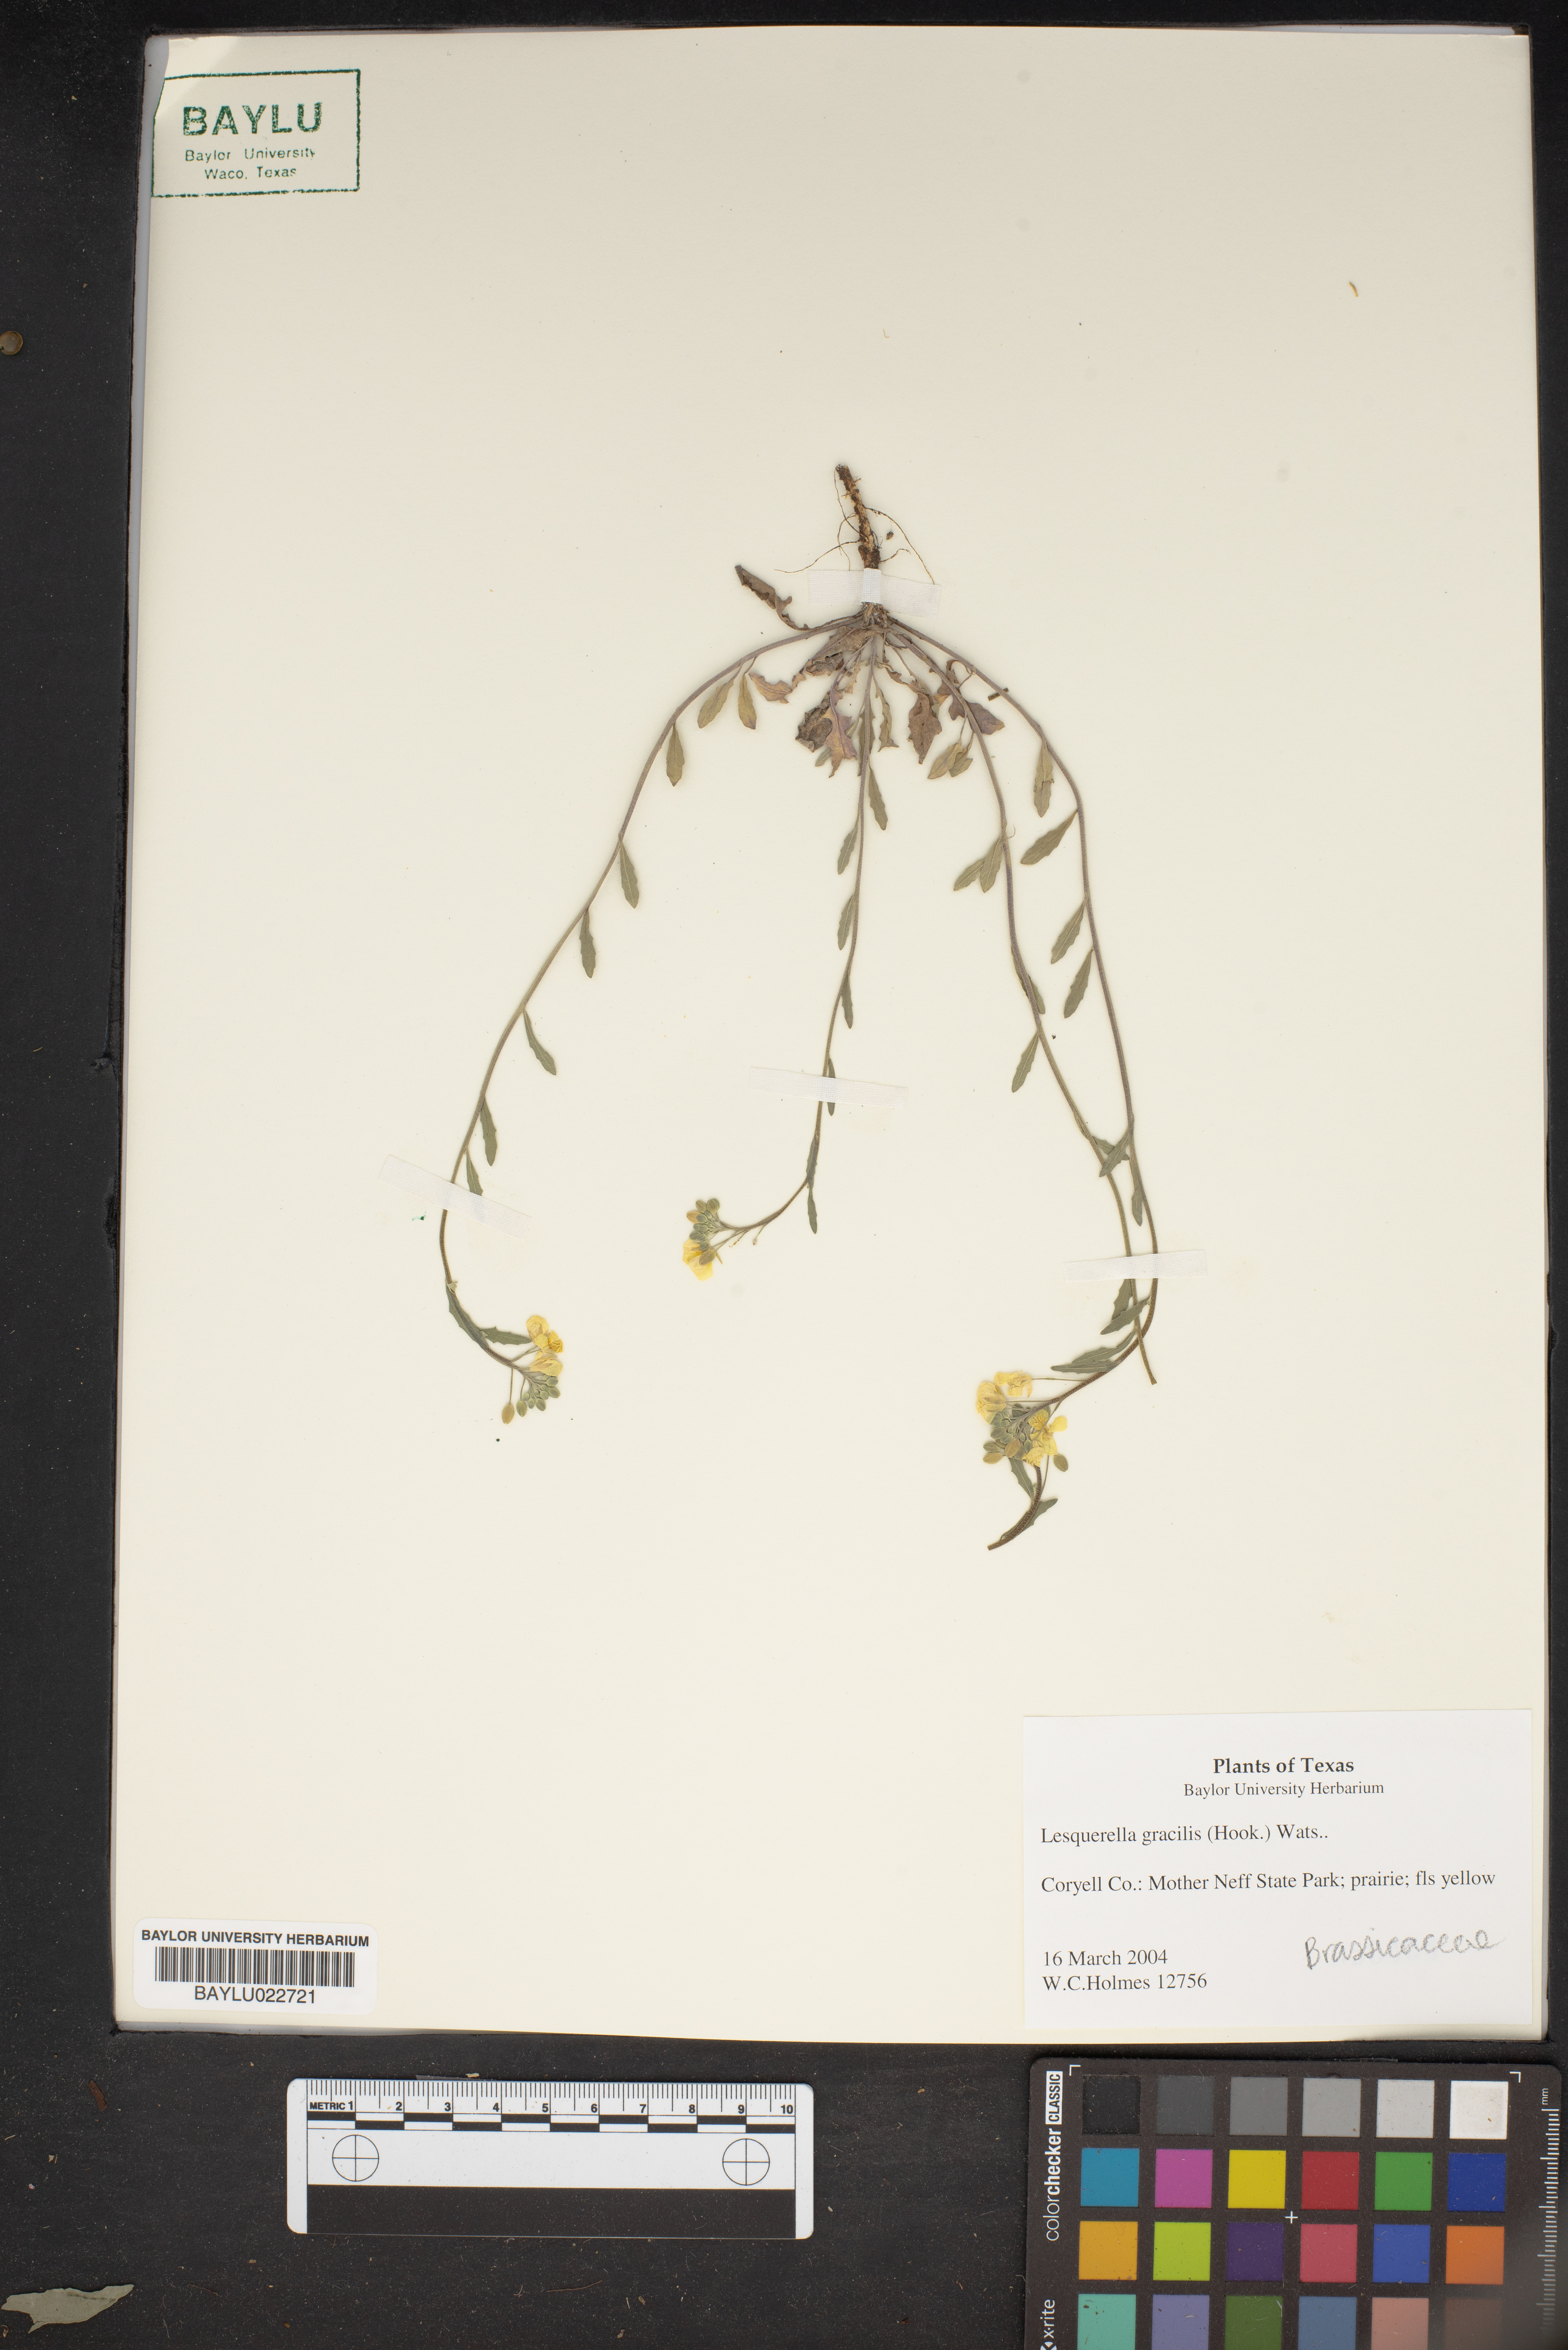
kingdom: Plantae
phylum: Tracheophyta
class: Magnoliopsida
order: Brassicales
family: Brassicaceae
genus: Physaria
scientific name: Physaria gracilis
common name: Spreading bladderpod
